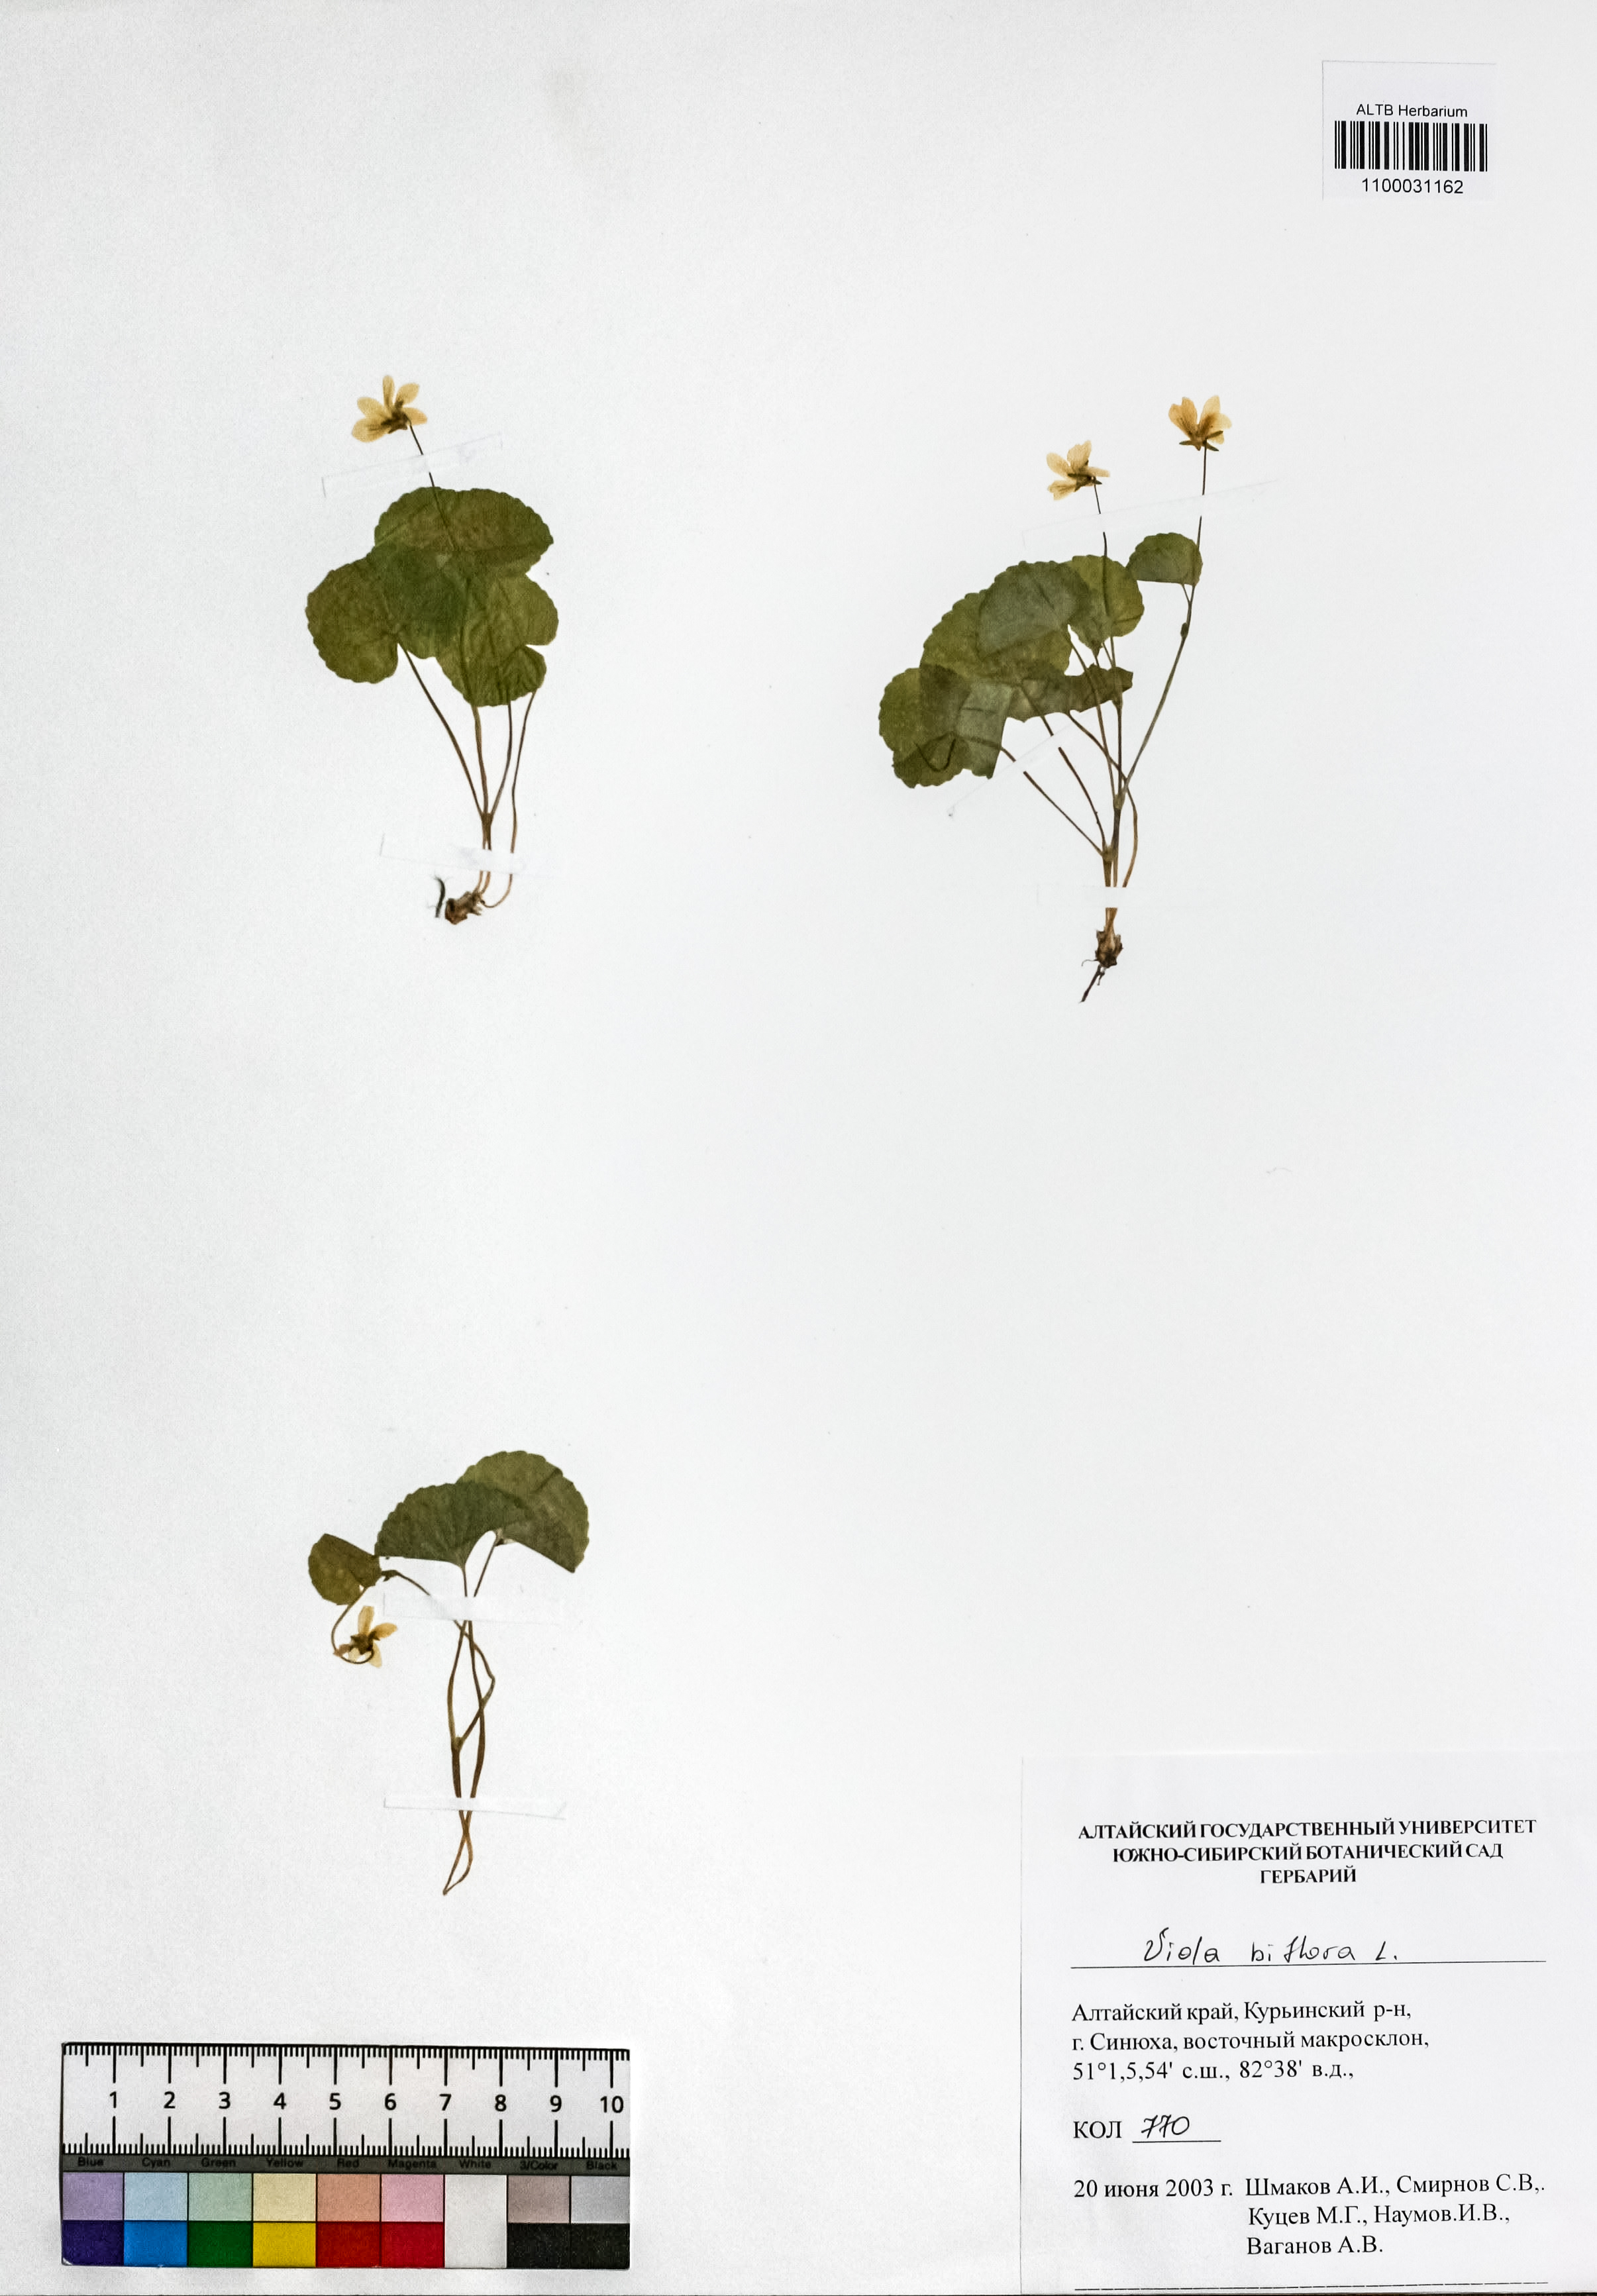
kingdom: Plantae
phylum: Tracheophyta
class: Magnoliopsida
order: Malpighiales
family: Violaceae
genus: Viola
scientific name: Viola biflora
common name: Alpine yellow violet
